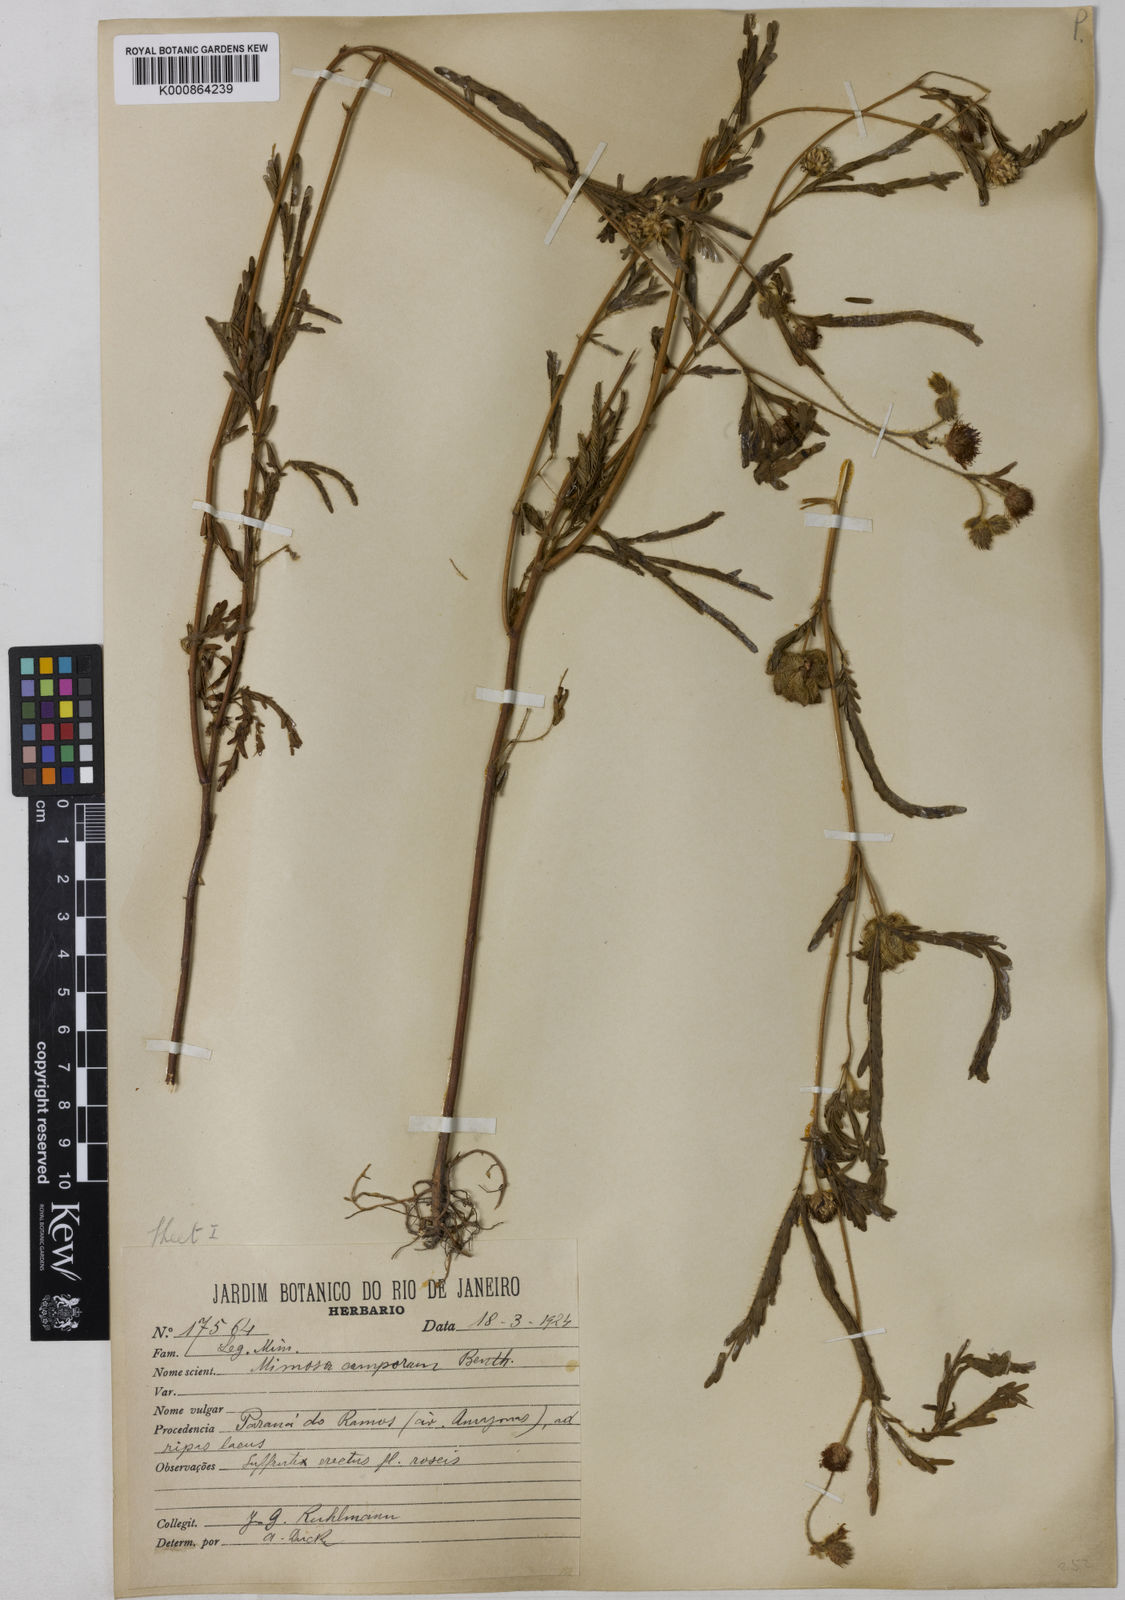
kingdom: Plantae
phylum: Tracheophyta
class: Magnoliopsida
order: Fabales
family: Fabaceae
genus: Mimosa
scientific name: Mimosa camporum
